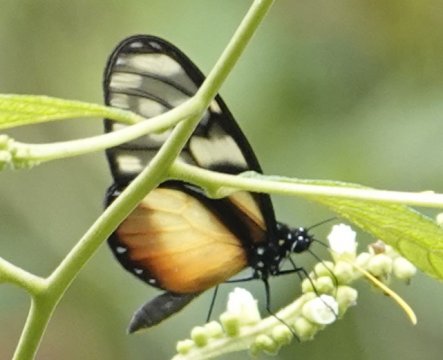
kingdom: Animalia
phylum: Arthropoda
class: Insecta
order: Lepidoptera
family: Nymphalidae
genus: Olyras
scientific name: Olyras insignis
